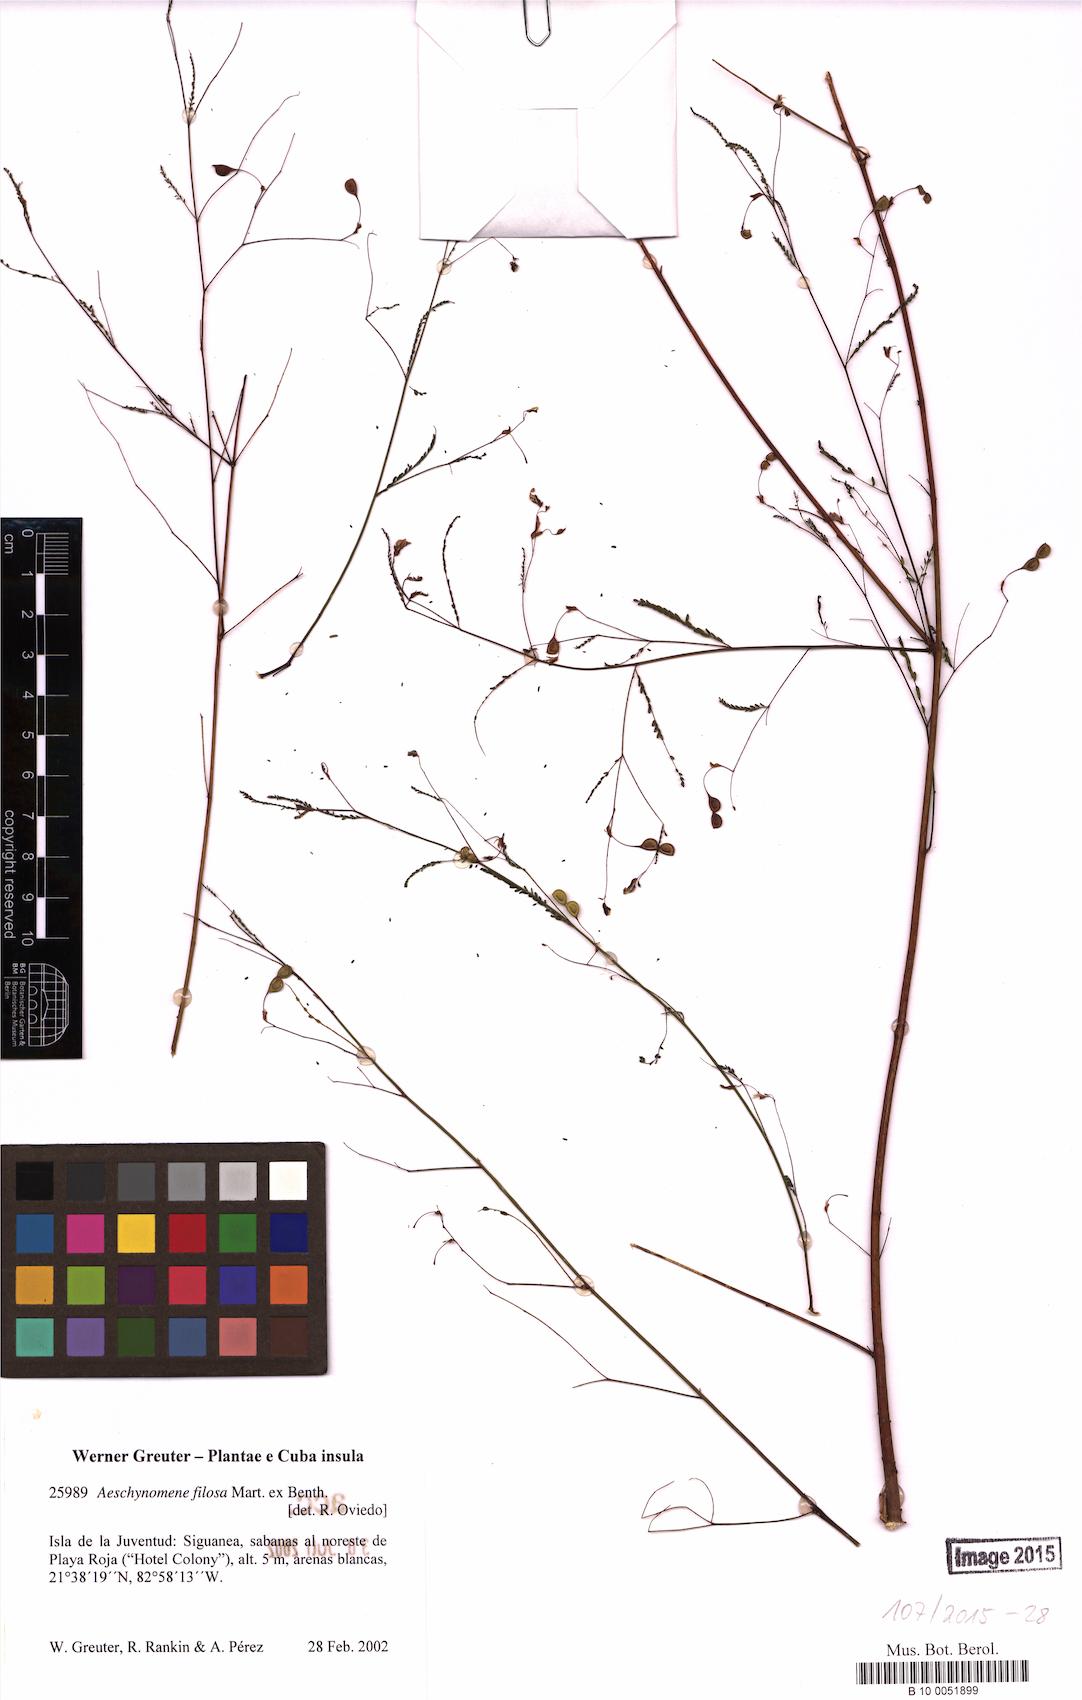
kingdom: Plantae
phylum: Tracheophyta
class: Magnoliopsida
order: Fabales
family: Fabaceae
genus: Aeschynomene
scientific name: Aeschynomene filosa
